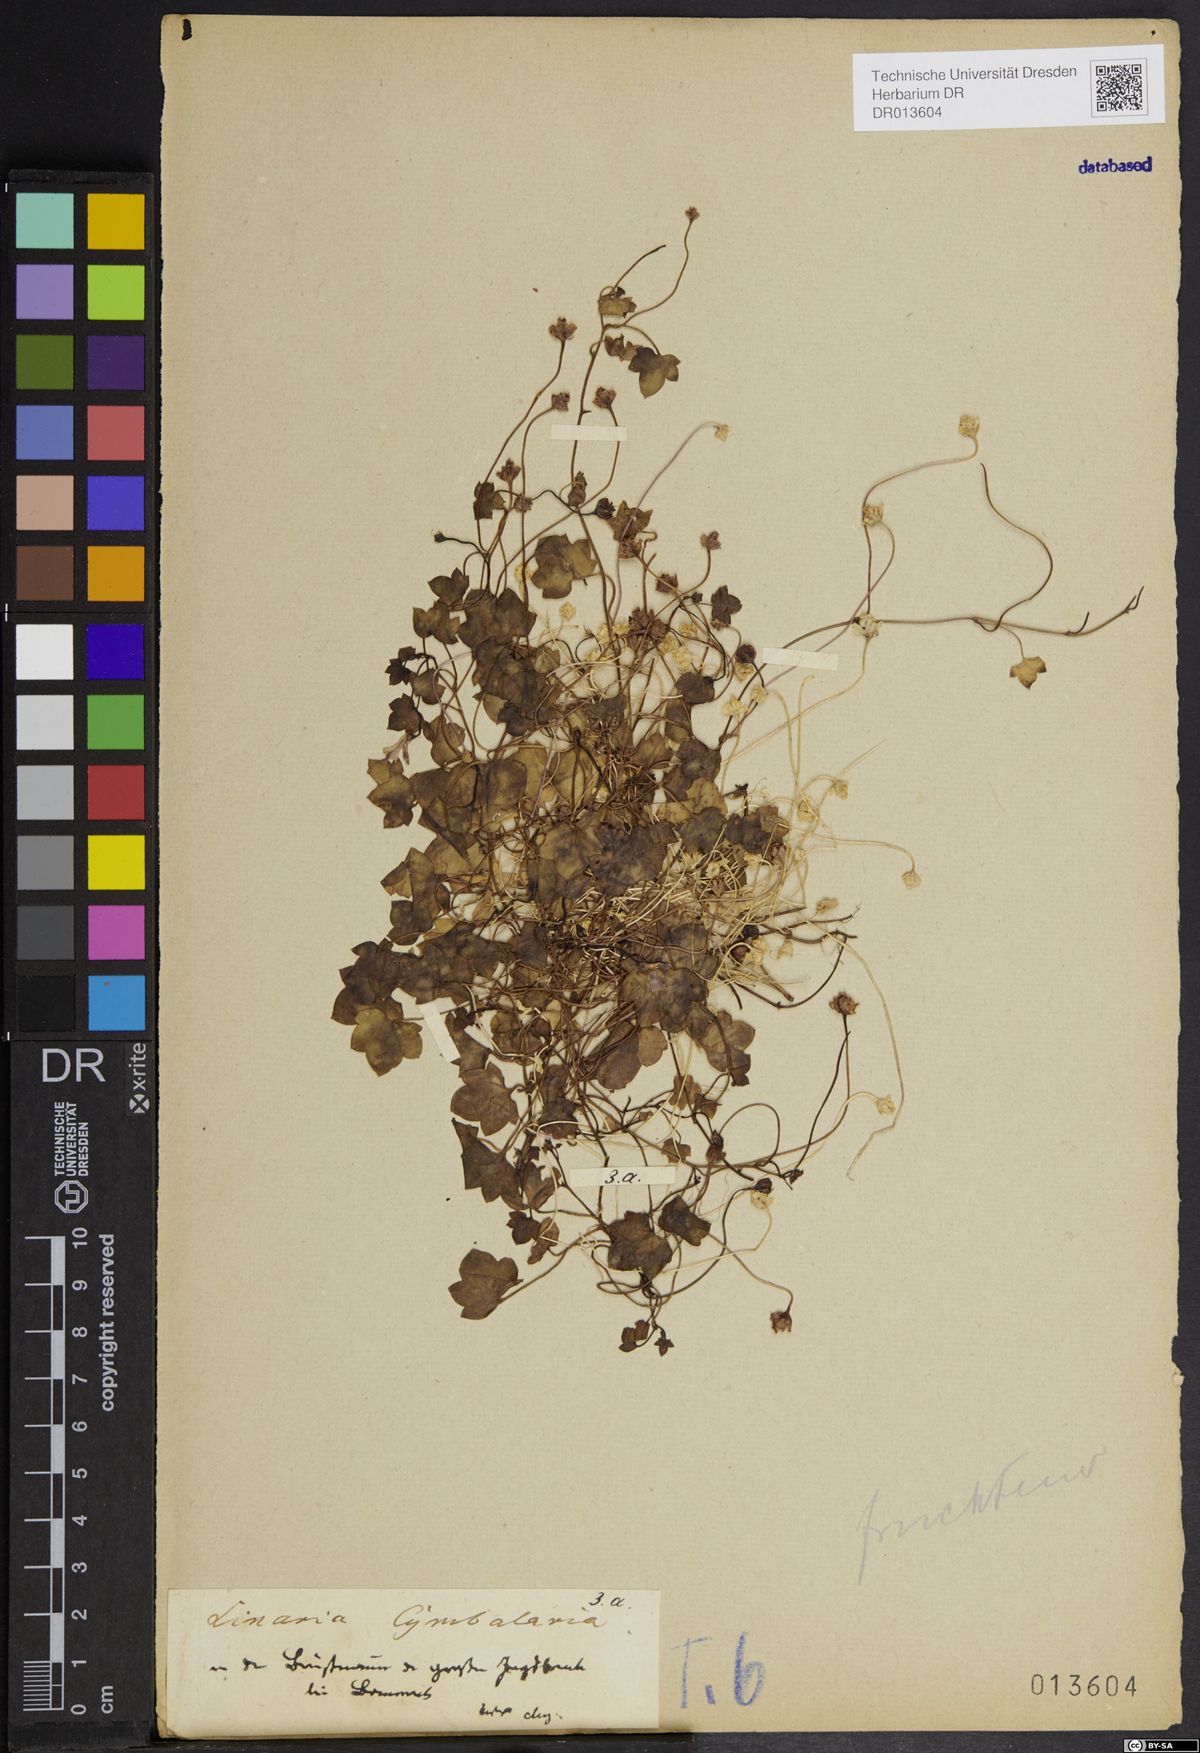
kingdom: Plantae
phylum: Tracheophyta
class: Magnoliopsida
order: Lamiales
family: Plantaginaceae
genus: Cymbalaria
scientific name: Cymbalaria muralis
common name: Ivy-leaved toadflax
